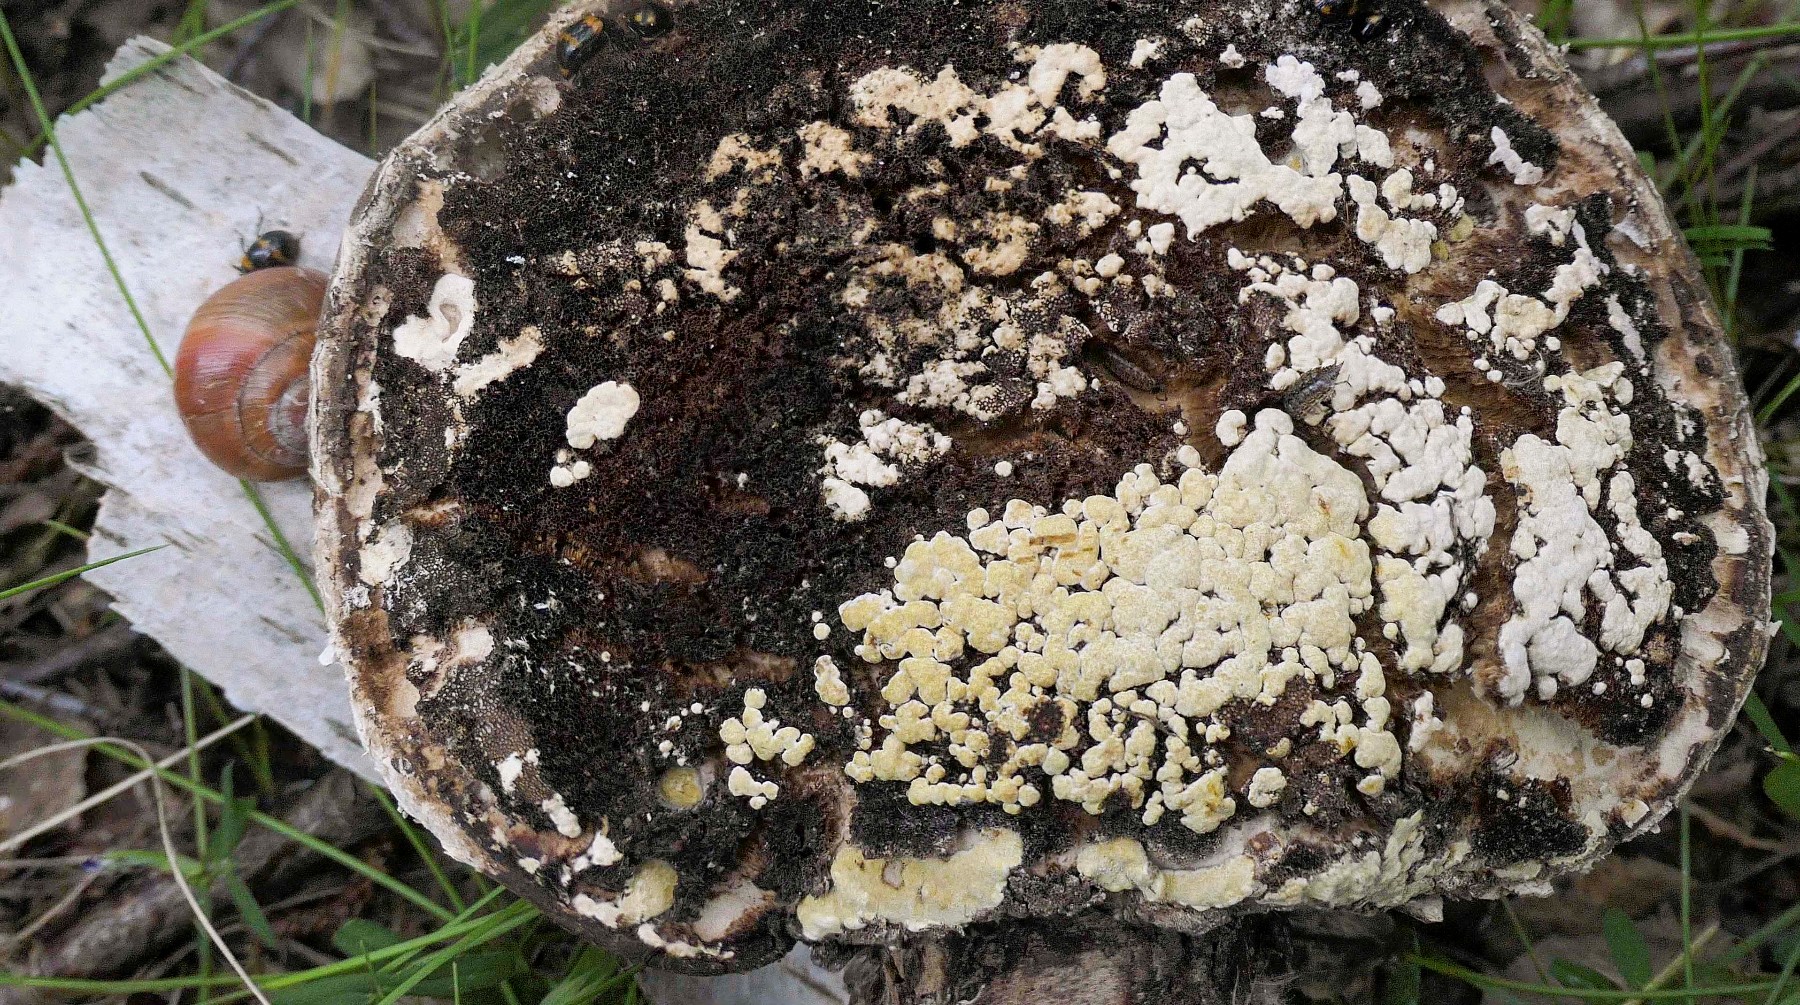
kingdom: Fungi
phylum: Ascomycota
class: Sordariomycetes
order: Hypocreales
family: Hypocreaceae
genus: Trichoderma
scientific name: Trichoderma pulvinatum
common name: snyltende kødkerne
